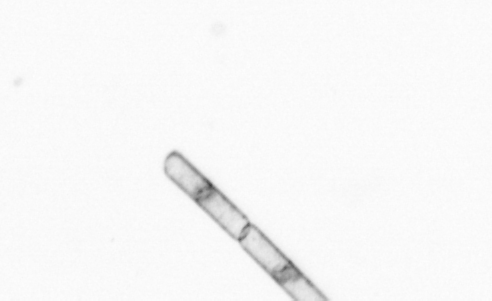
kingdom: Chromista
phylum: Ochrophyta
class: Bacillariophyceae
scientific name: Bacillariophyceae
